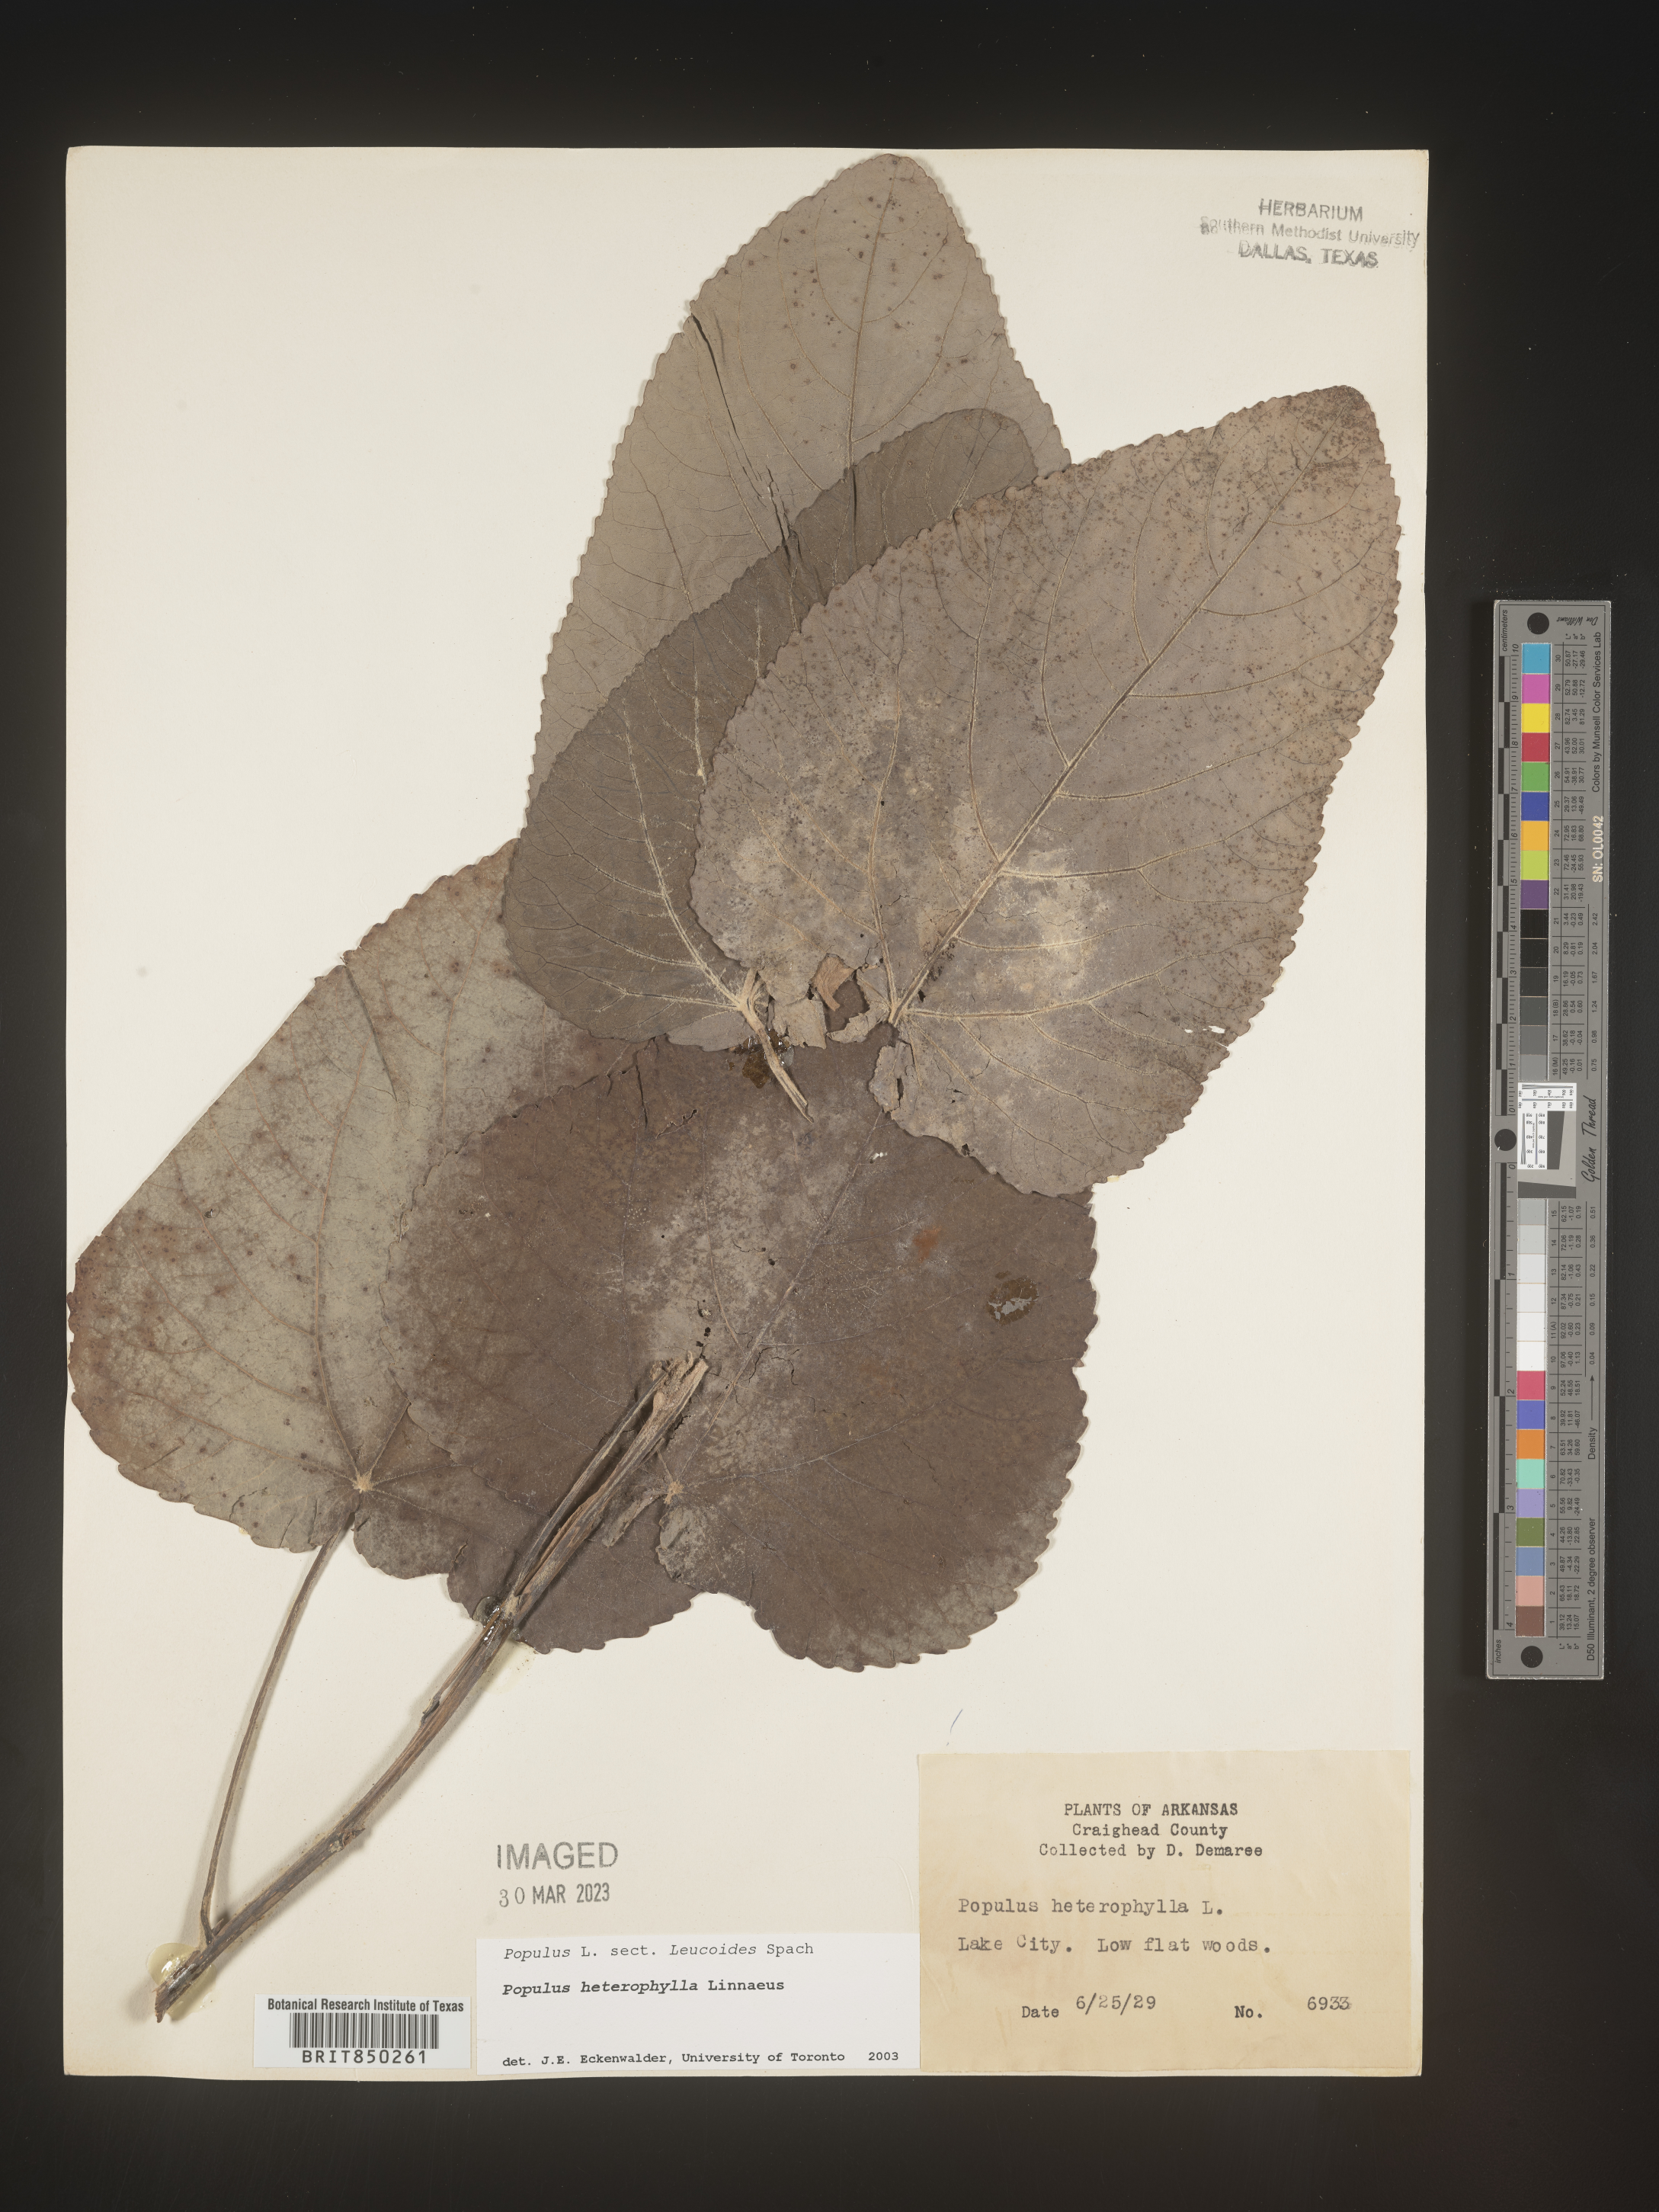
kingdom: Plantae
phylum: Tracheophyta
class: Magnoliopsida
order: Malpighiales
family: Salicaceae
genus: Populus
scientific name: Populus heterophylla
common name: Downy poplar
